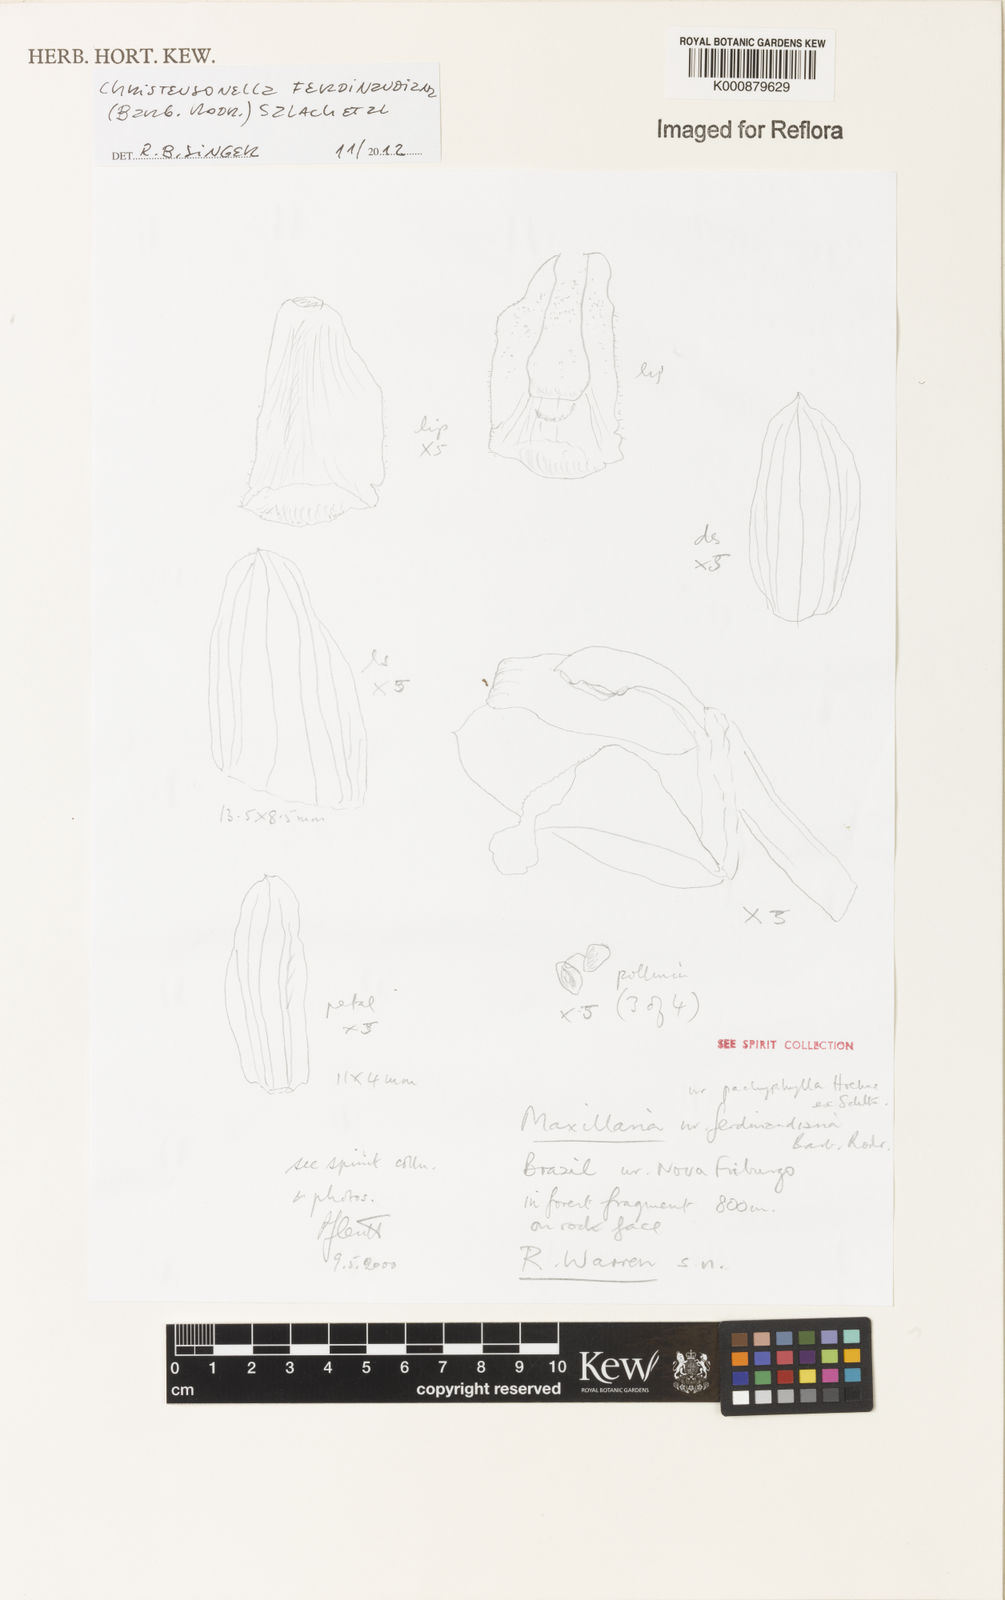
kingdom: Plantae
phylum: Tracheophyta
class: Liliopsida
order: Asparagales
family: Orchidaceae
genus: Maxillaria
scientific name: Maxillaria ferdinandiana
